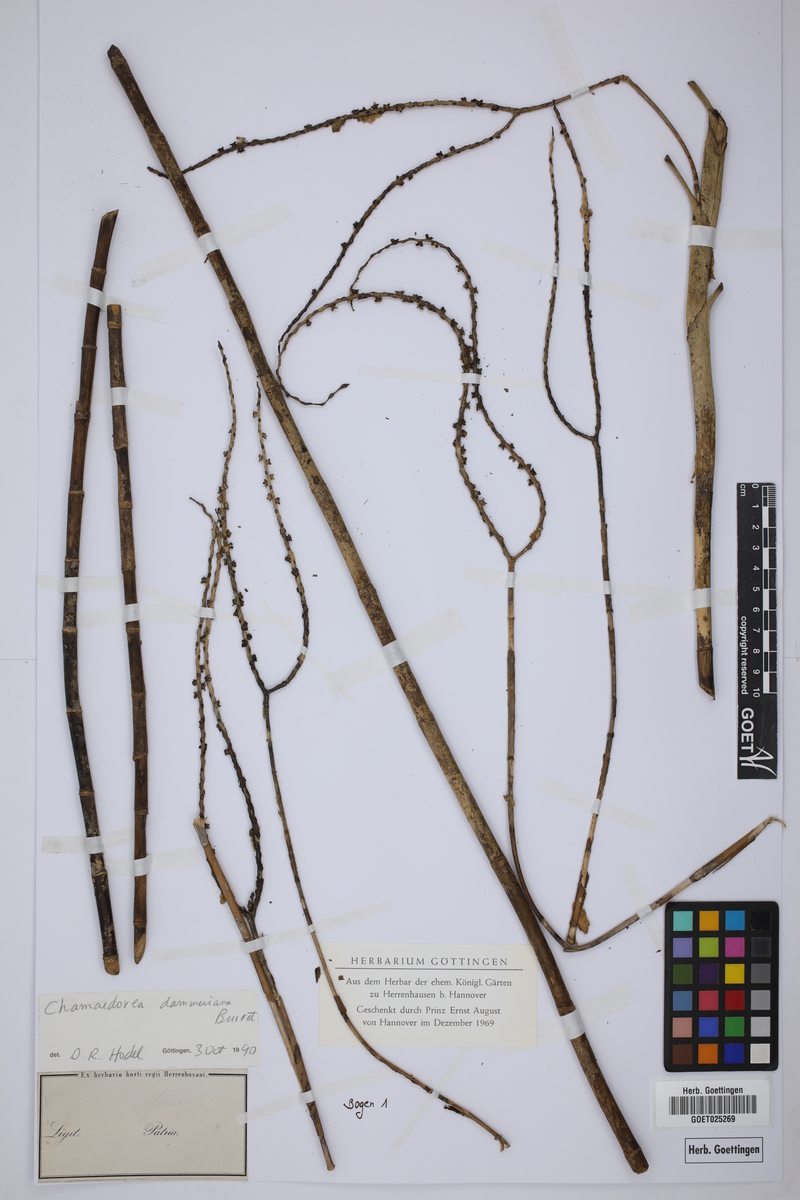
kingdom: Plantae
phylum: Tracheophyta
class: Liliopsida
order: Arecales
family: Arecaceae
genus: Chamaedorea
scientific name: Chamaedorea dammeriana
